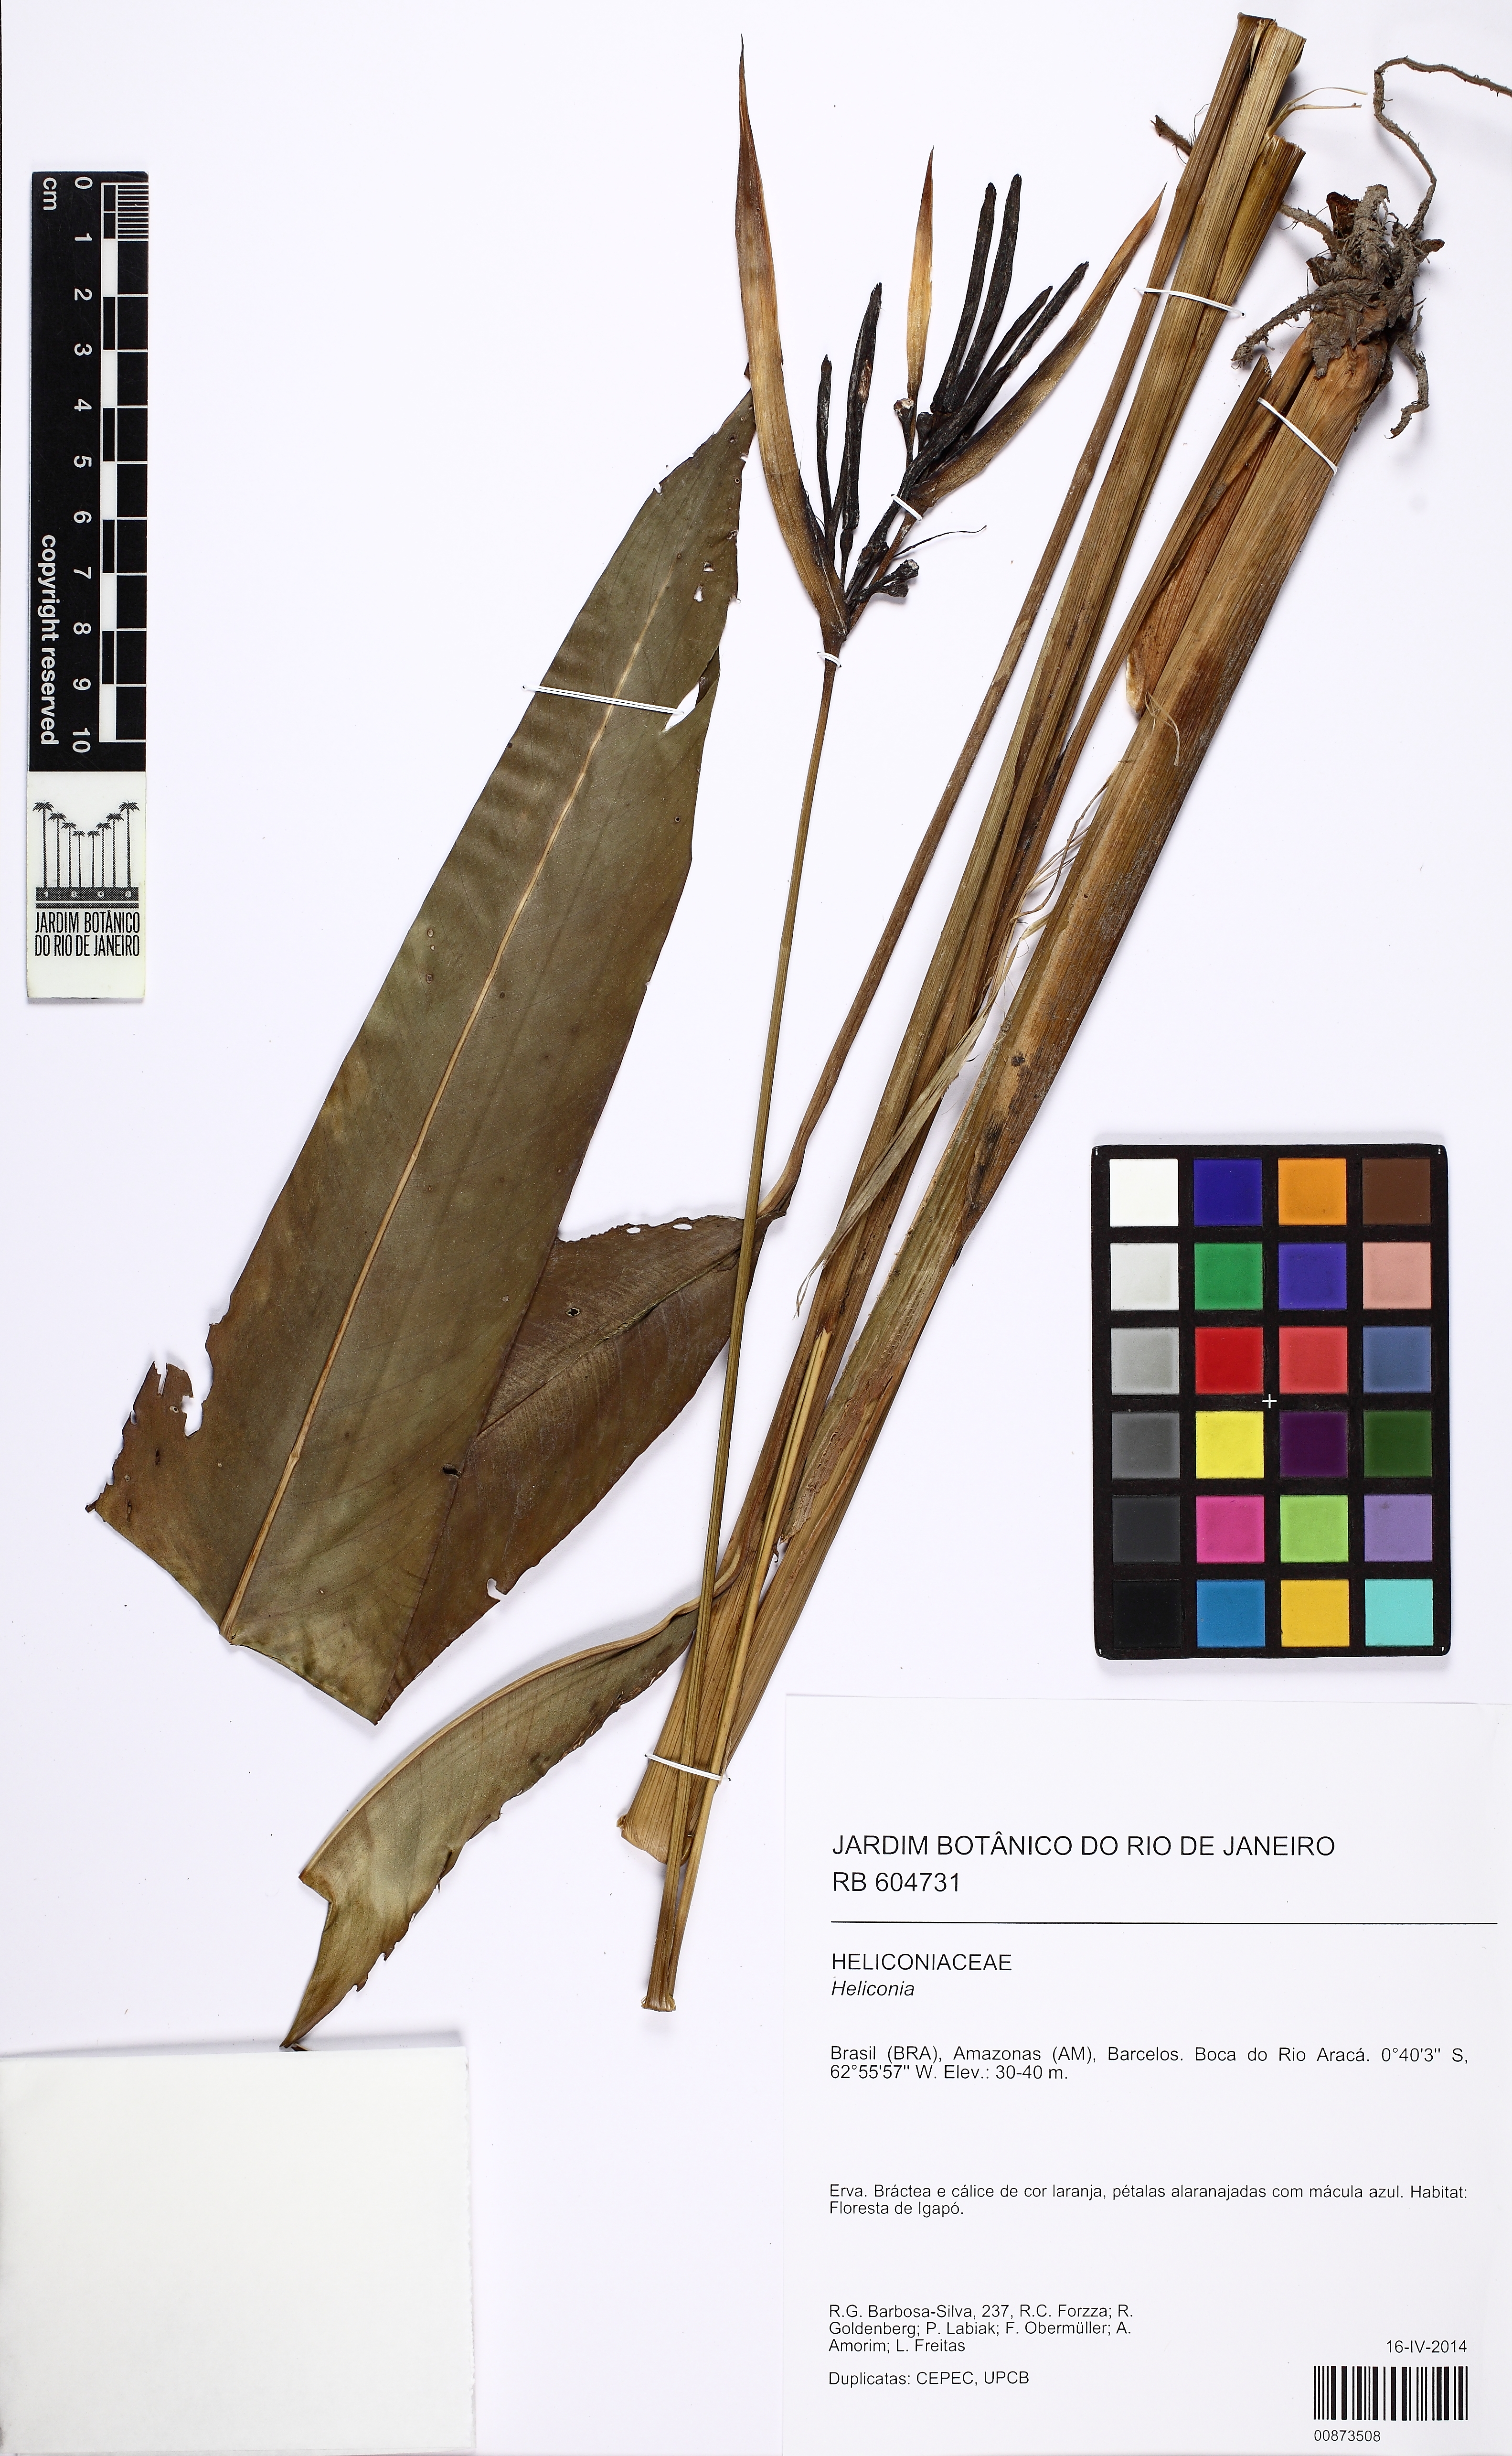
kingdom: Plantae
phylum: Tracheophyta
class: Liliopsida
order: Zingiberales
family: Heliconiaceae
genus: Heliconia
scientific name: Heliconia
